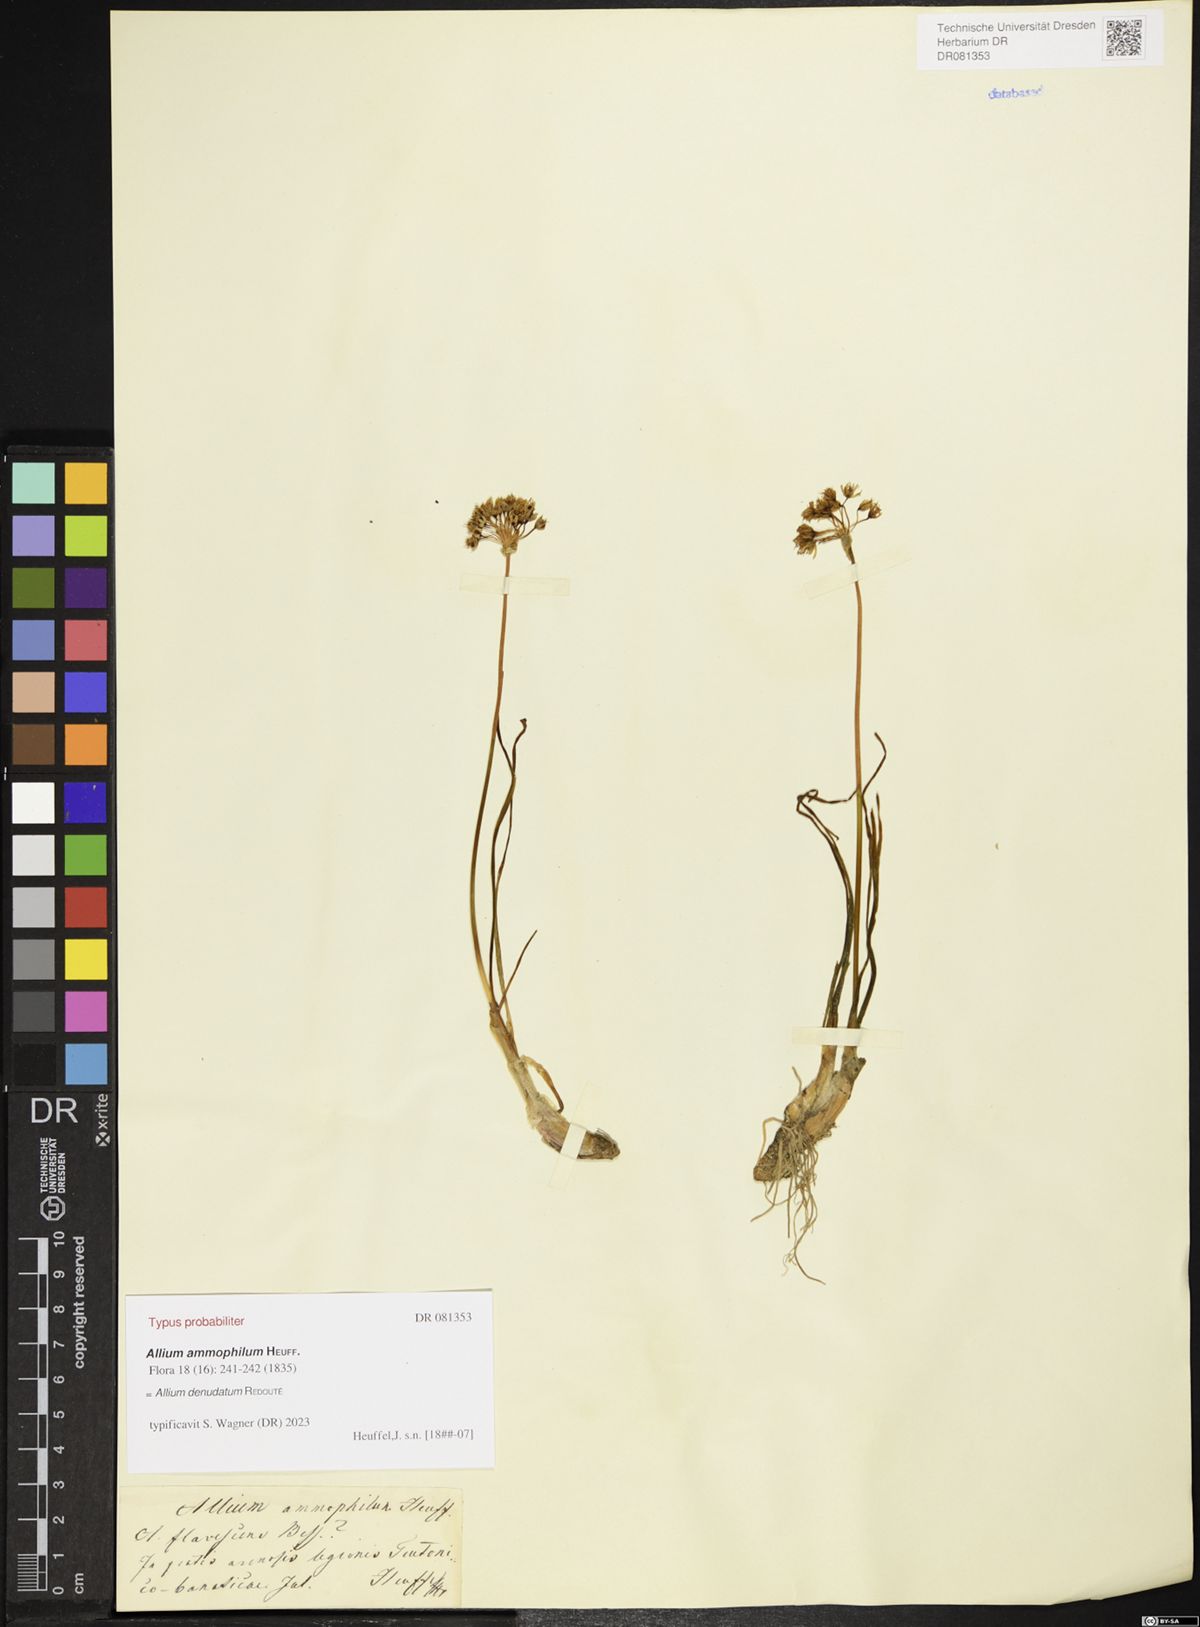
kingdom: Plantae
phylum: Tracheophyta
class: Liliopsida
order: Asparagales
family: Amaryllidaceae
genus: Allium
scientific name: Allium denudatum
